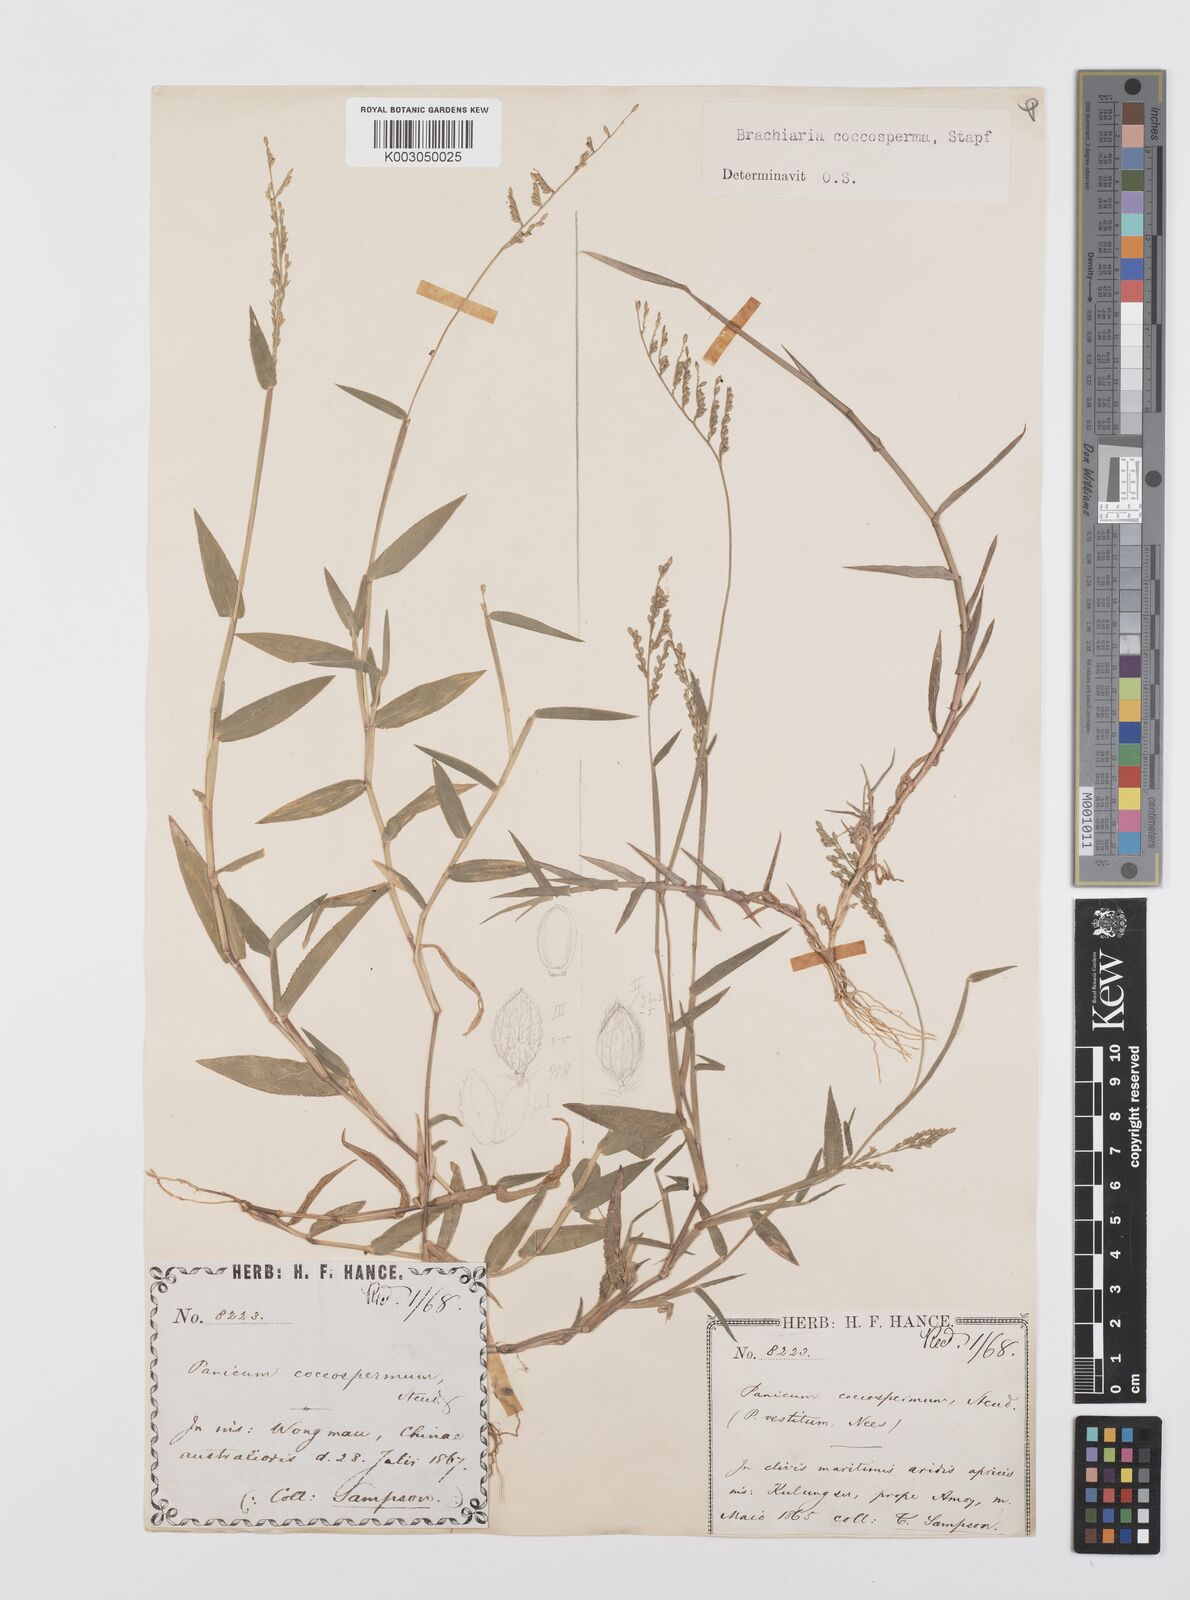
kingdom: Plantae
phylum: Tracheophyta
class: Liliopsida
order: Poales
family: Poaceae
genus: Urochloa
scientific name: Urochloa villosa
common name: Hairy signalgrass
